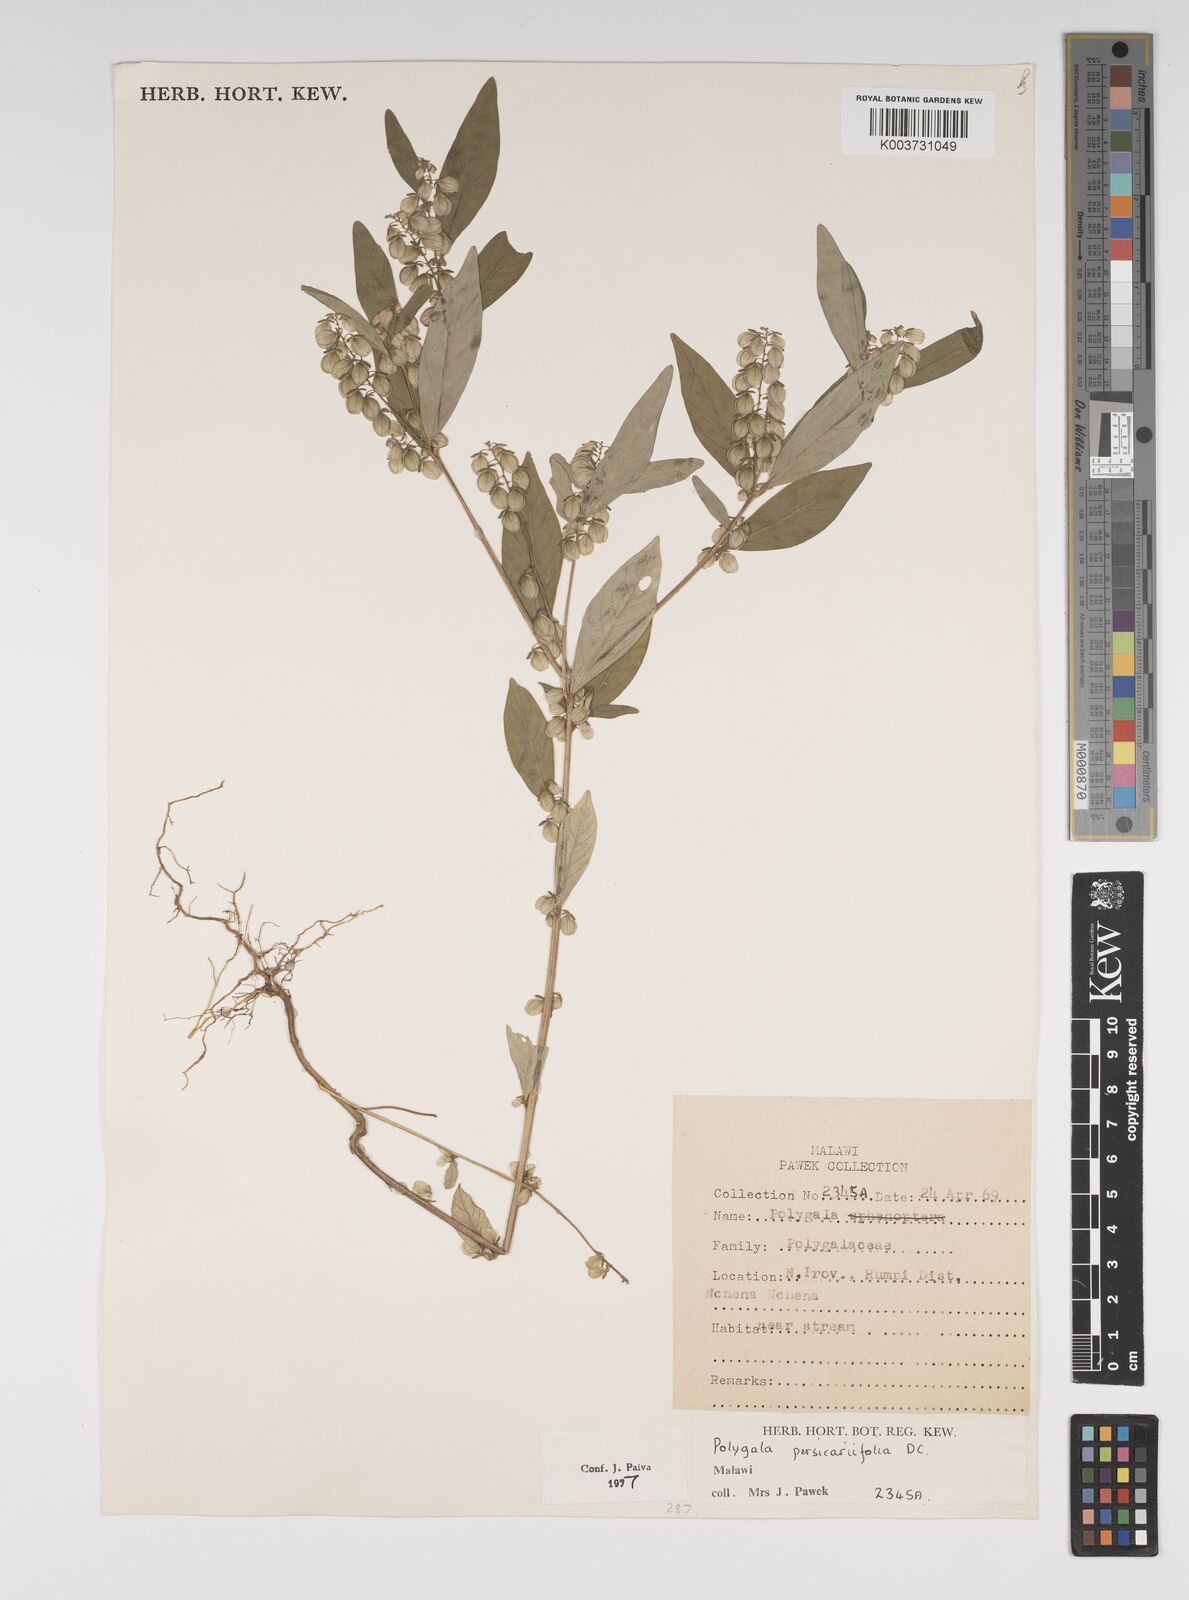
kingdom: Plantae
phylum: Tracheophyta
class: Magnoliopsida
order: Fabales
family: Polygalaceae
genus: Polygala
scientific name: Polygala persicariifolia
